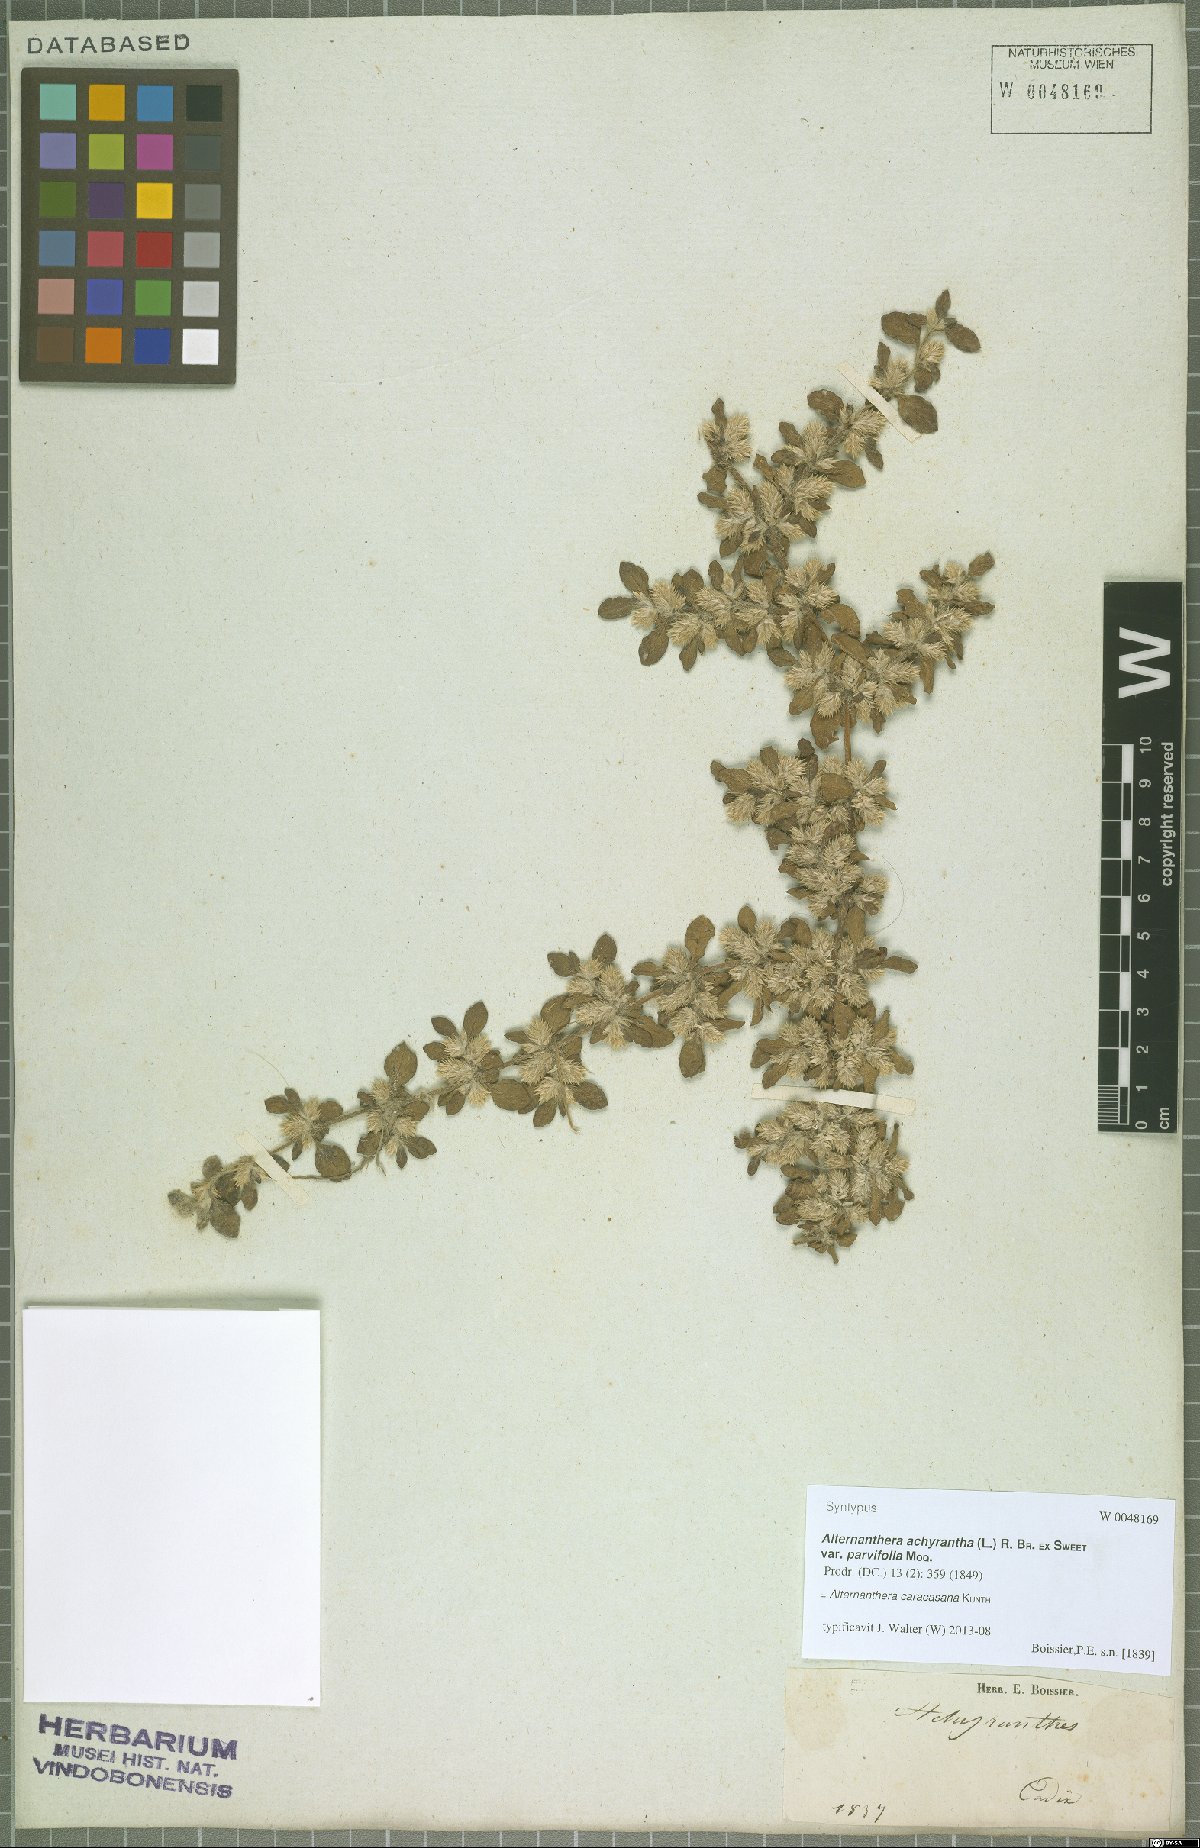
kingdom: Plantae
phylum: Tracheophyta
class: Magnoliopsida
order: Caryophyllales
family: Amaranthaceae
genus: Alternanthera
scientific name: Alternanthera caracasana
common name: Washerwoman
